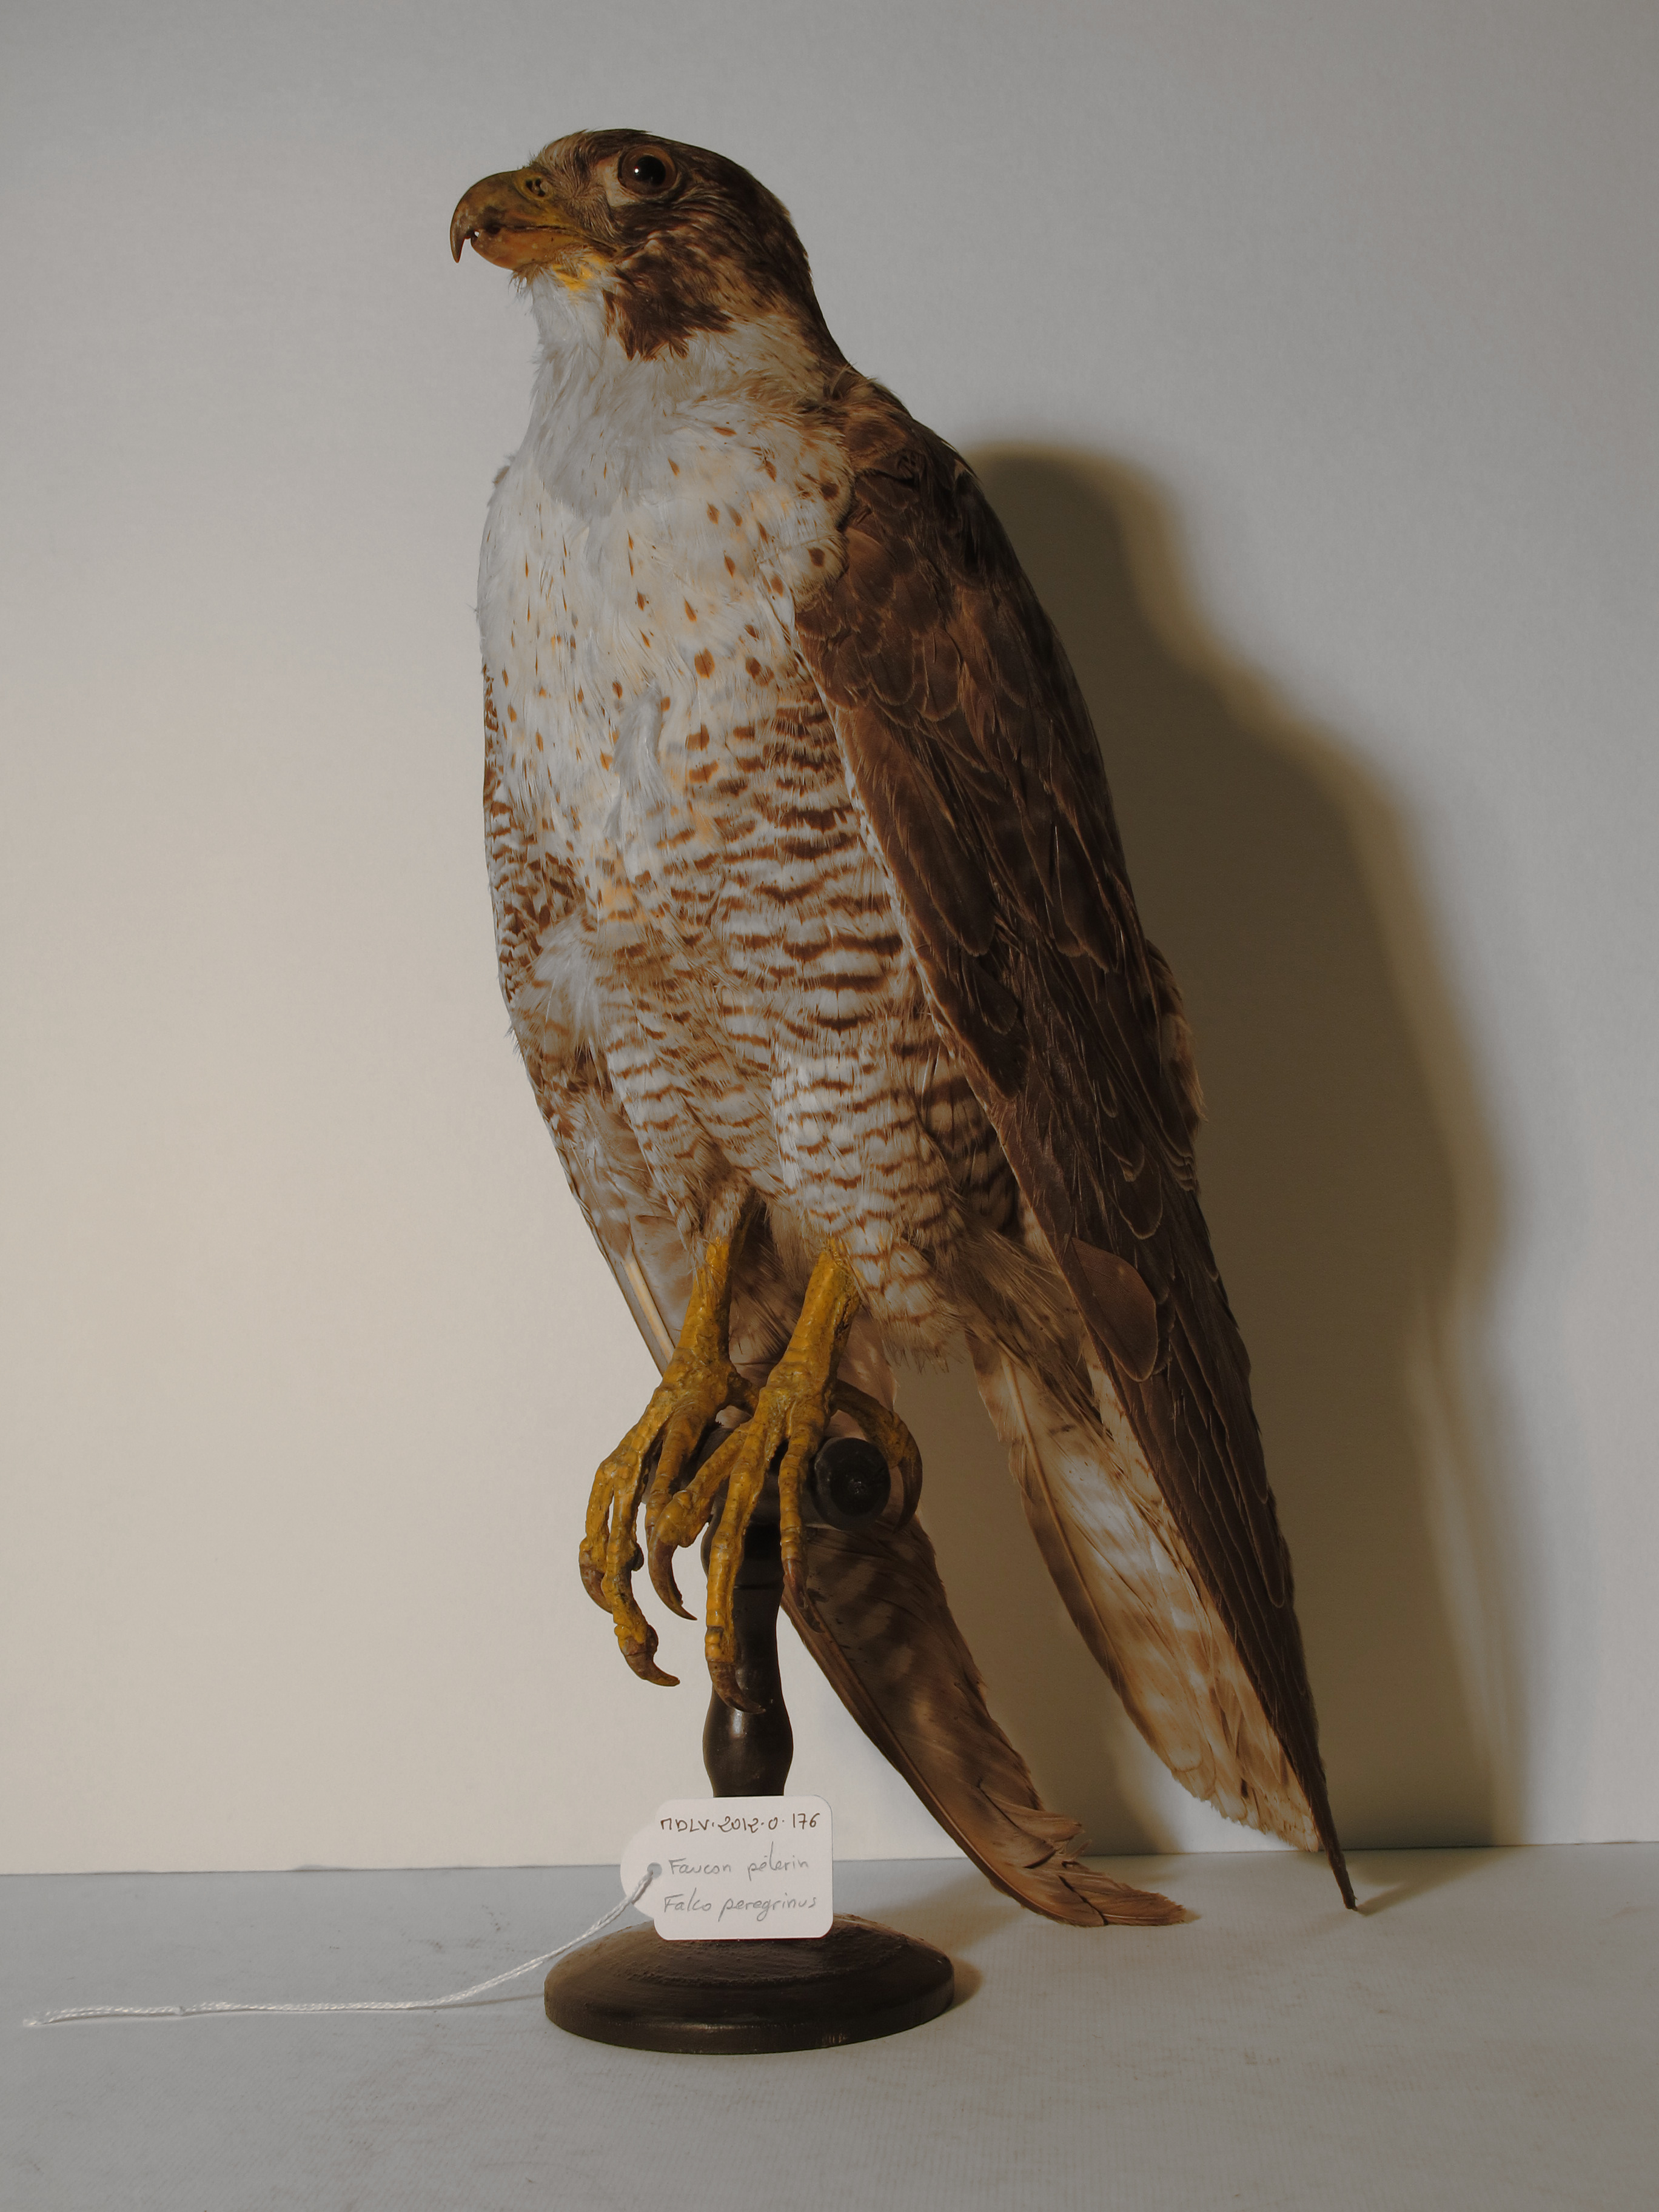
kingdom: Animalia
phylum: Chordata
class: Aves
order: Falconiformes
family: Falconidae
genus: Falco
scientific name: Falco peregrinus
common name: Peregrine Falcon
